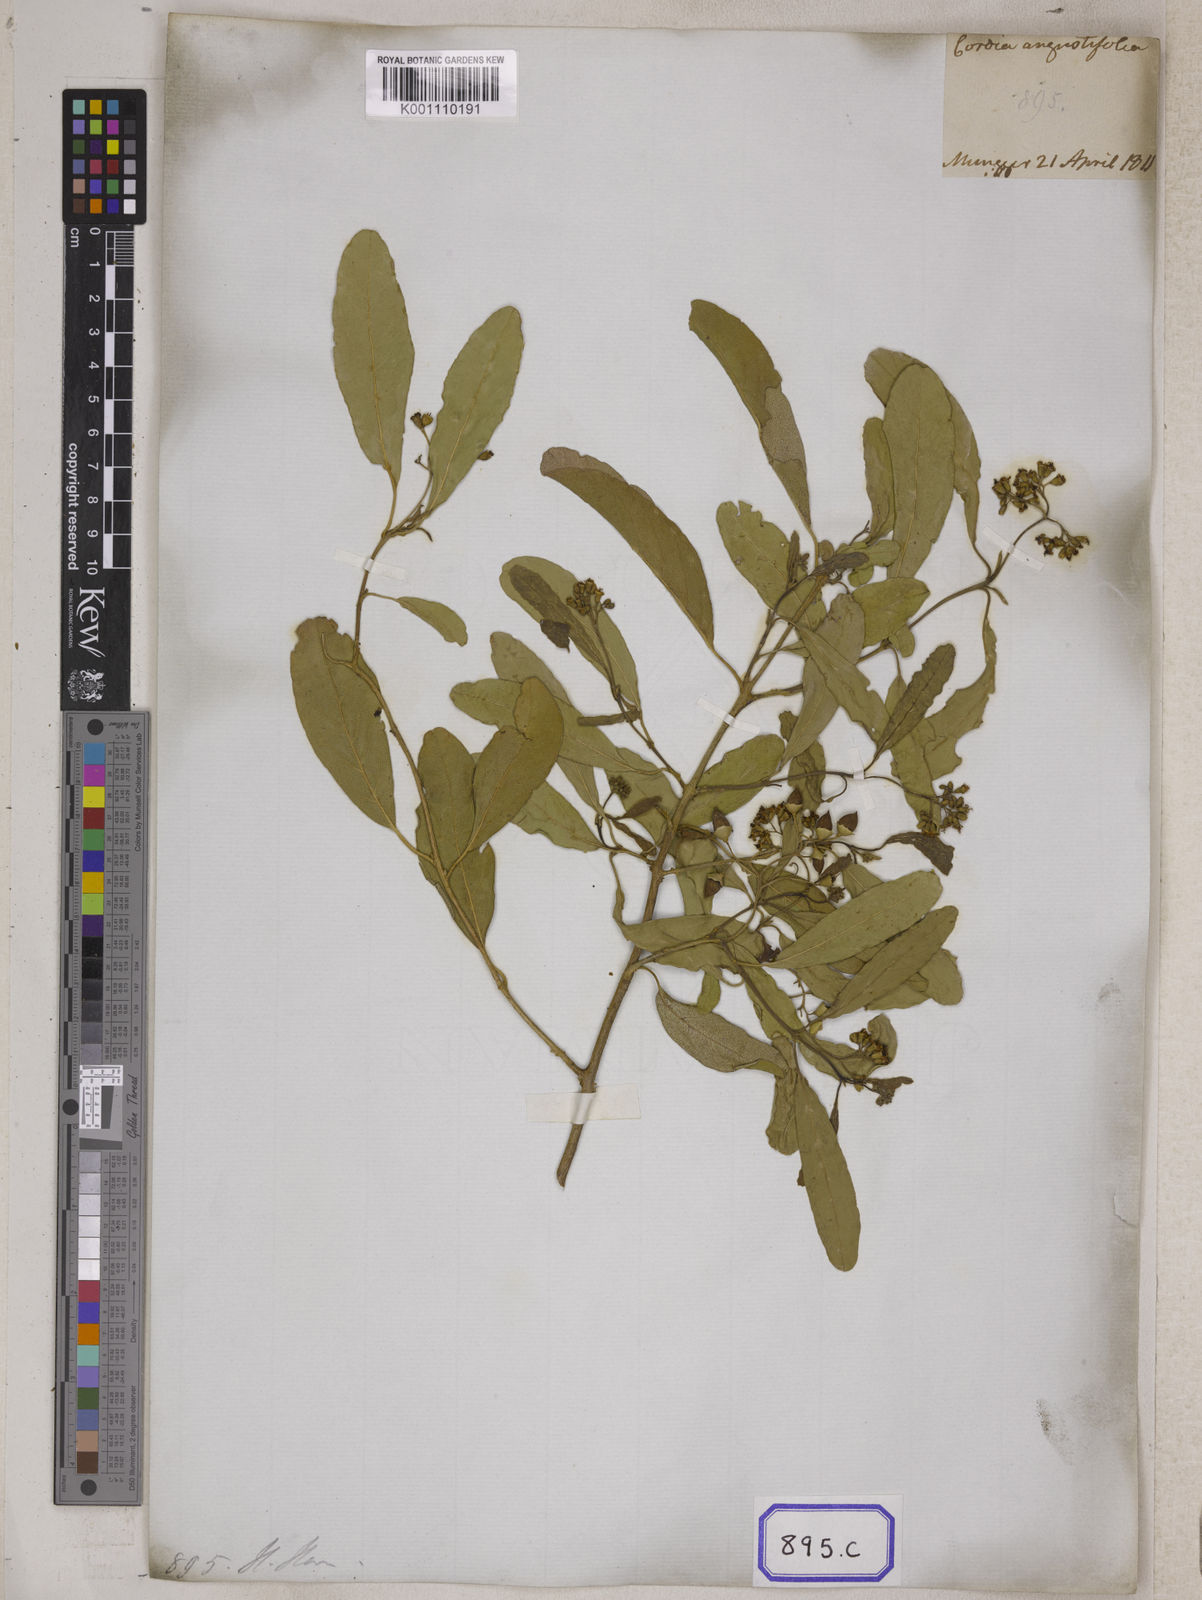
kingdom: Plantae
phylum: Tracheophyta
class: Magnoliopsida
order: Boraginales
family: Cordiaceae
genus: Cordia
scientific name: Cordia sinensis
